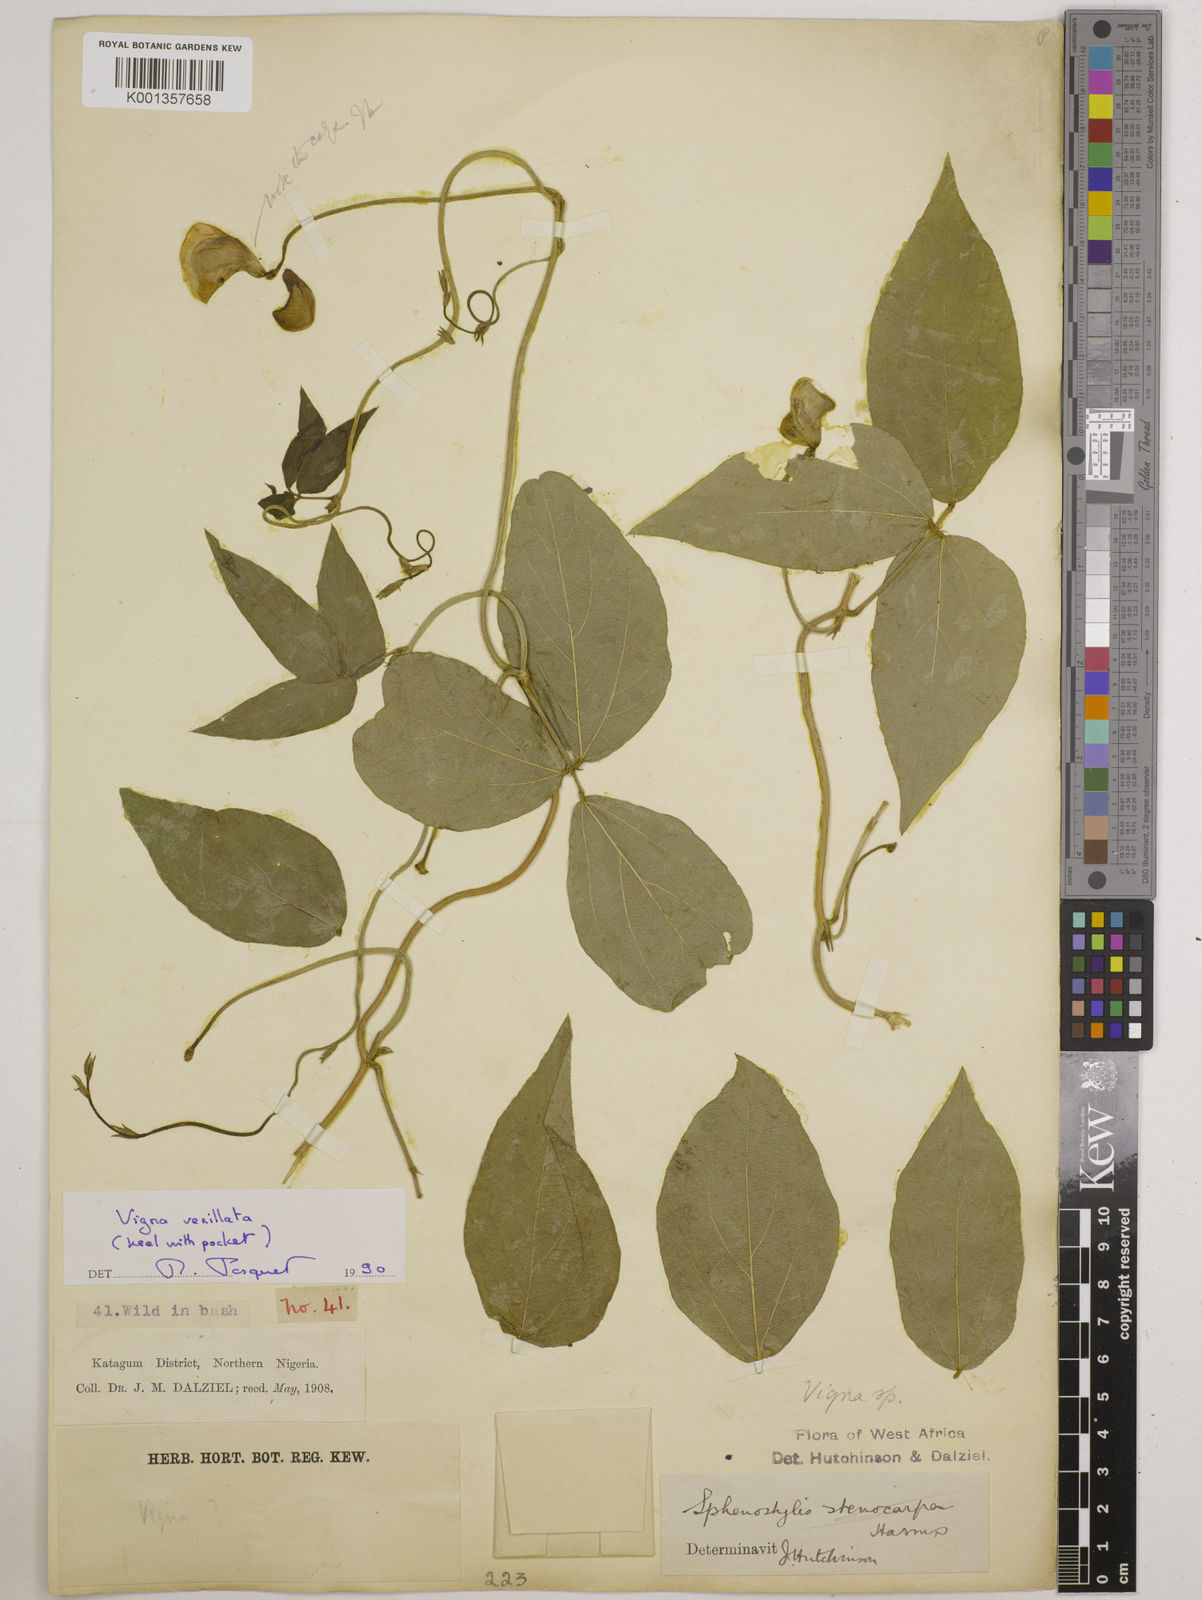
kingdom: Plantae
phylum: Tracheophyta
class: Magnoliopsida
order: Fabales
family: Fabaceae
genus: Vigna
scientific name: Vigna vexillata
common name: Zombi pea
